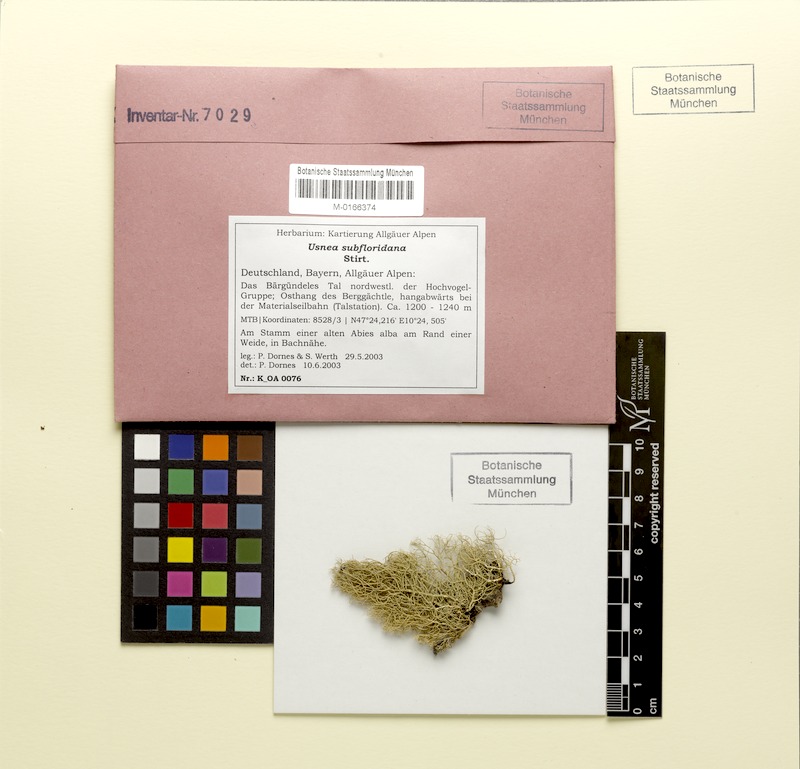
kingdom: Fungi
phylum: Ascomycota
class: Lecanoromycetes
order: Lecanorales
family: Parmeliaceae
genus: Usnea
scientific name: Usnea subfloridana
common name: Boreal beard lichen
